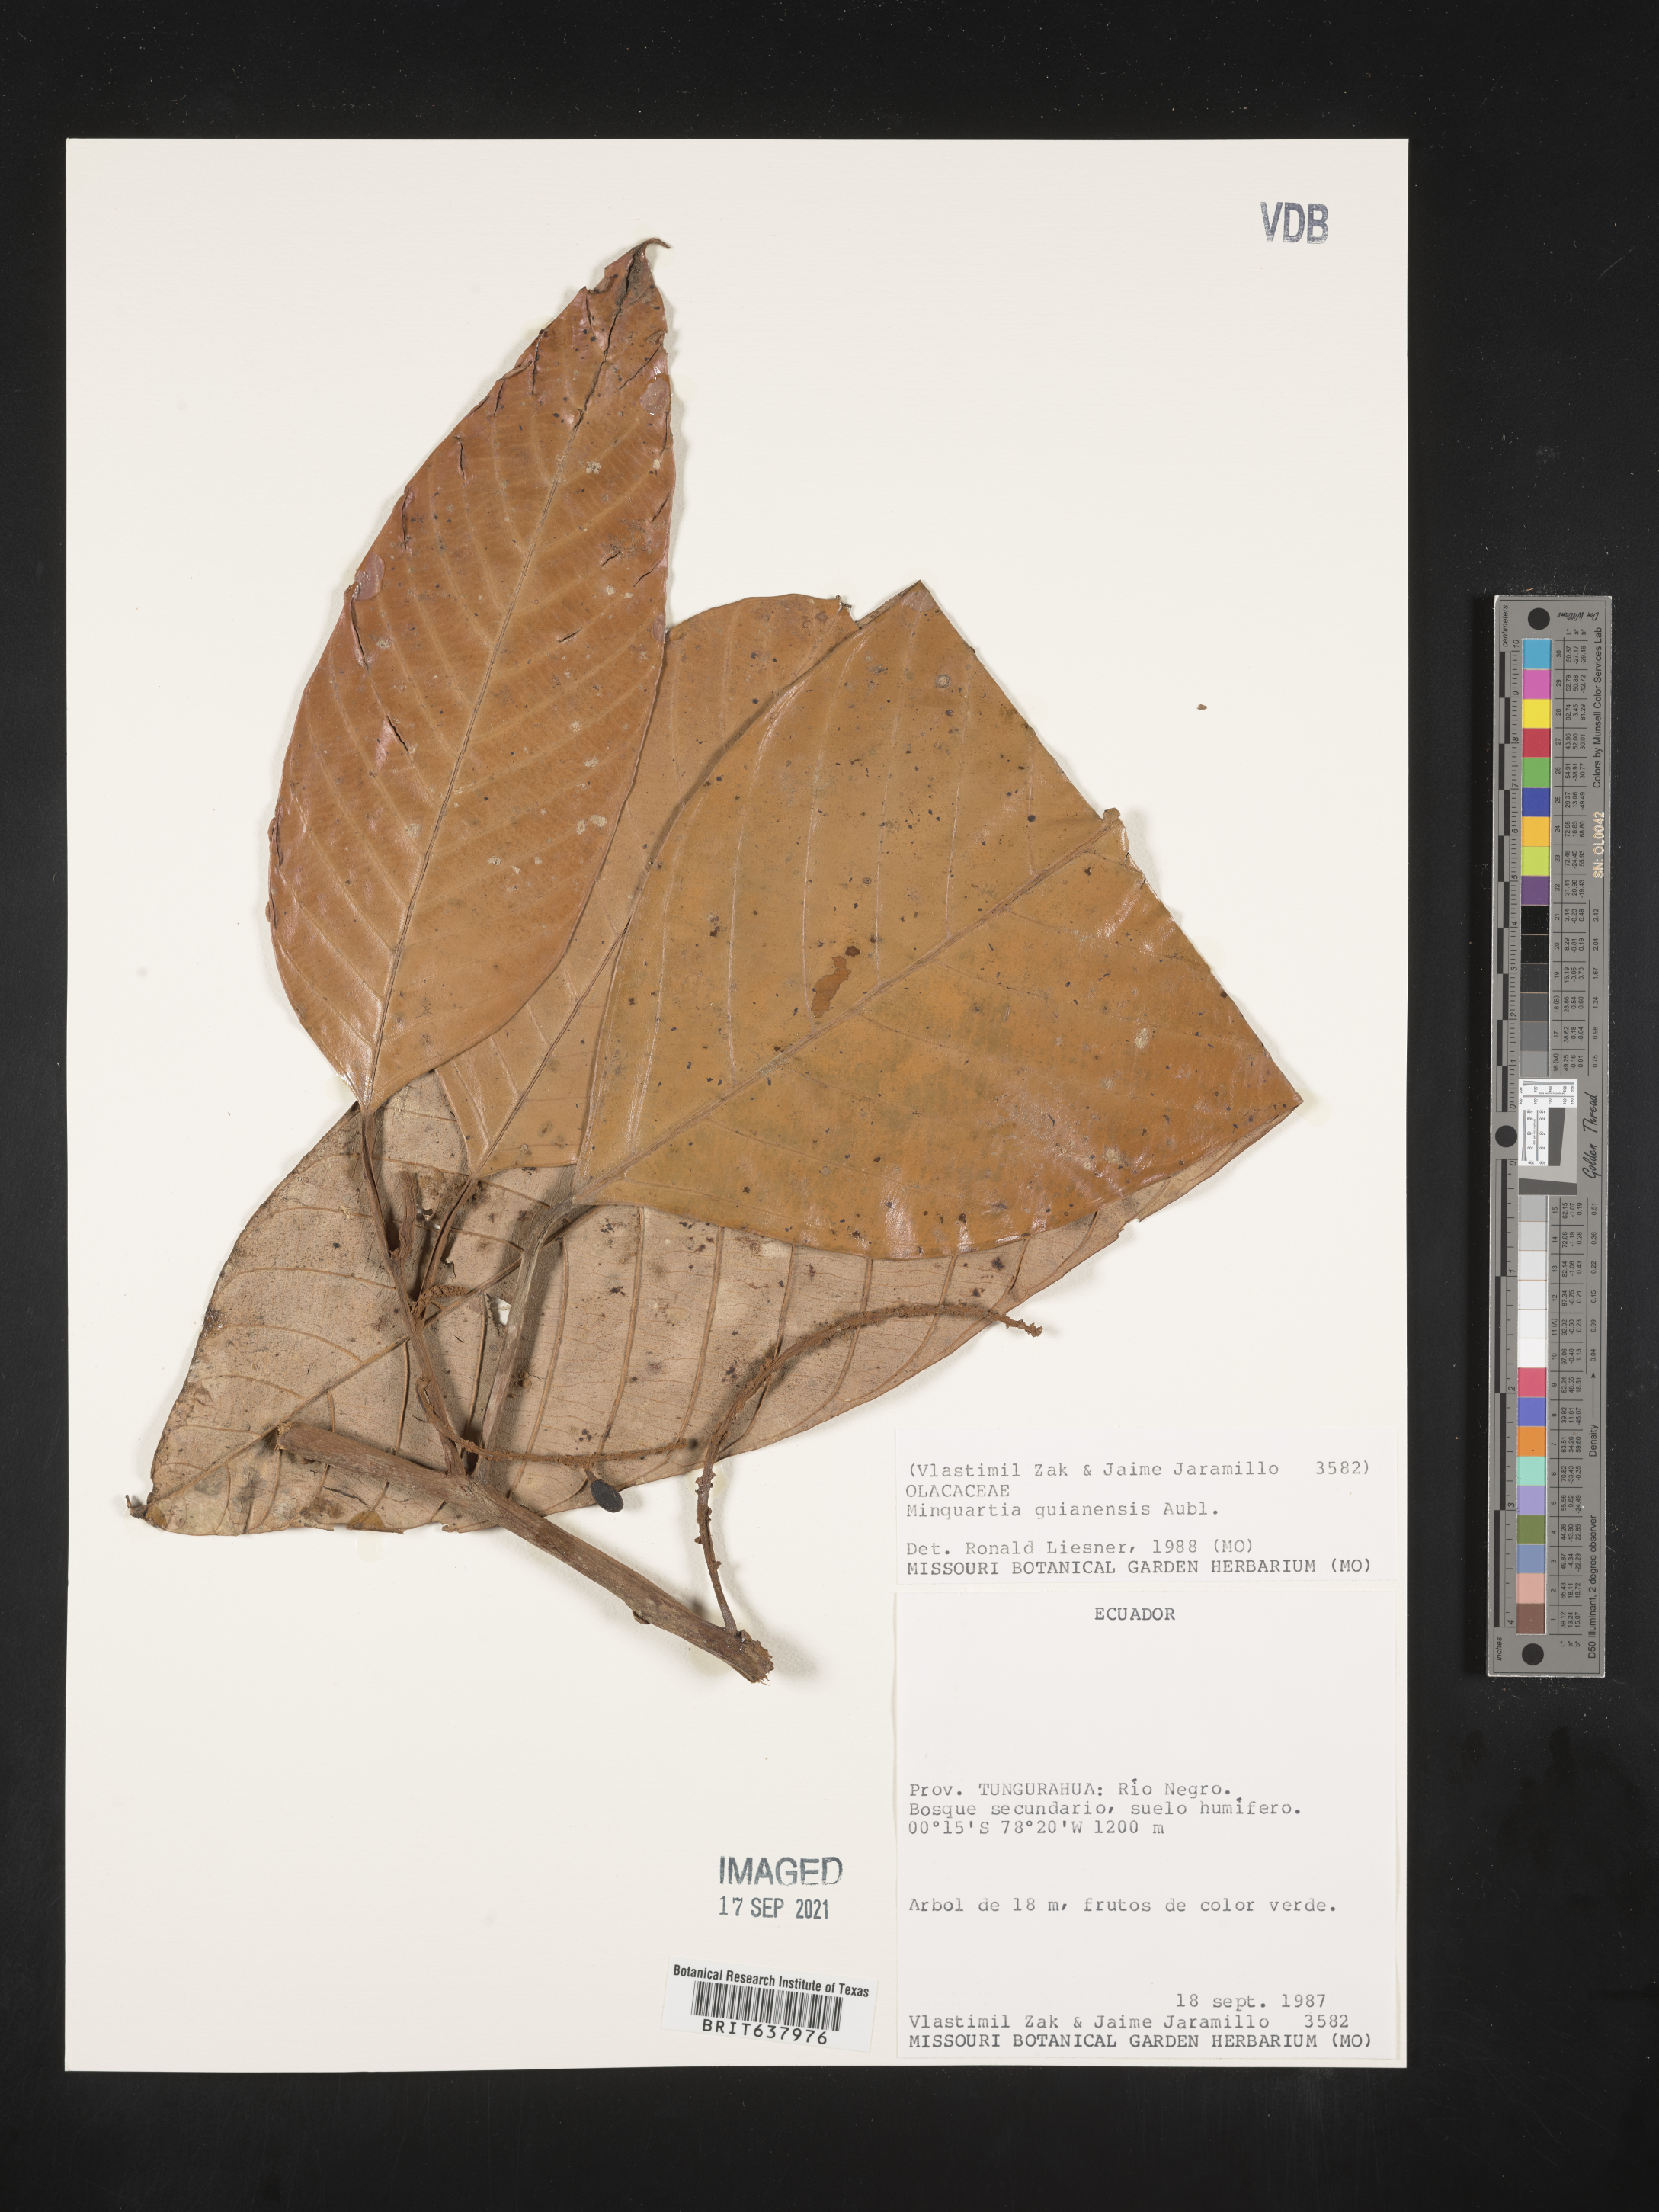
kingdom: Plantae
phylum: Tracheophyta
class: Magnoliopsida
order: Santalales
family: Coulaceae
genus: Minquartia
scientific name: Minquartia guianensis
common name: Black manwood
